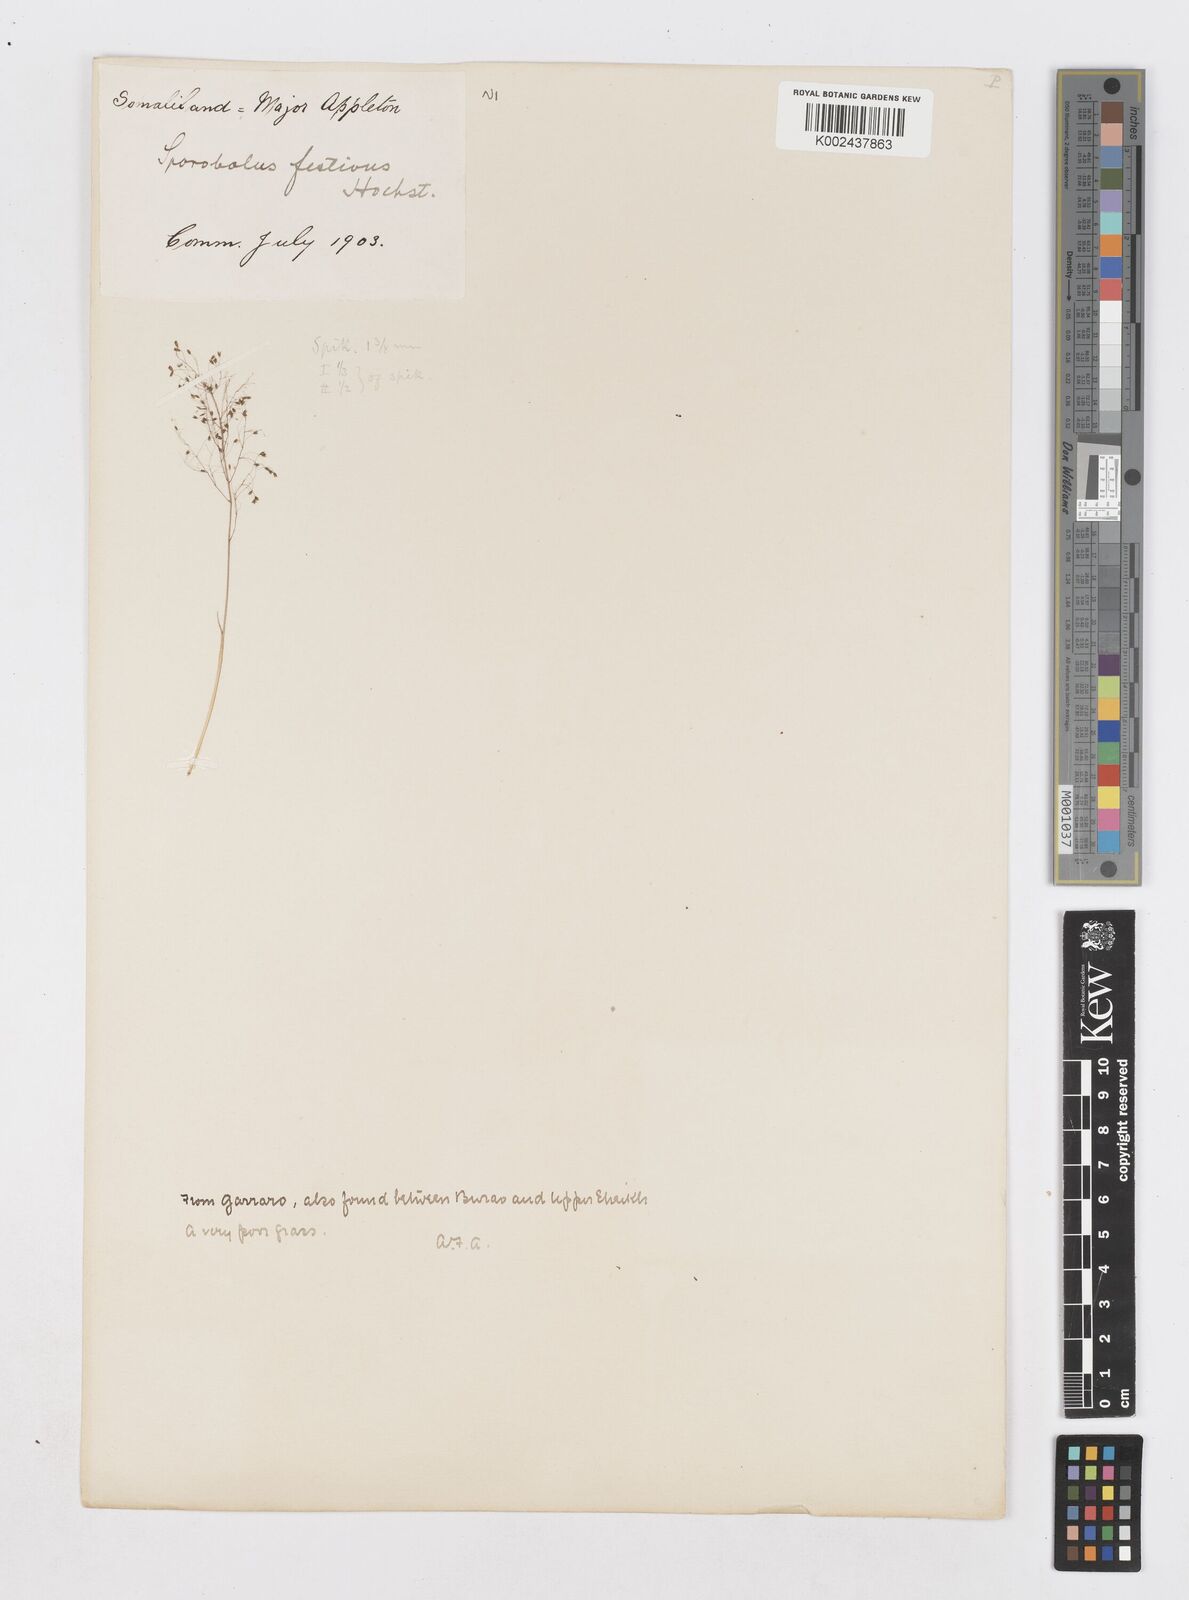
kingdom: Plantae
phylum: Tracheophyta
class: Liliopsida
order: Poales
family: Poaceae
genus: Sporobolus
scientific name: Sporobolus festivus
